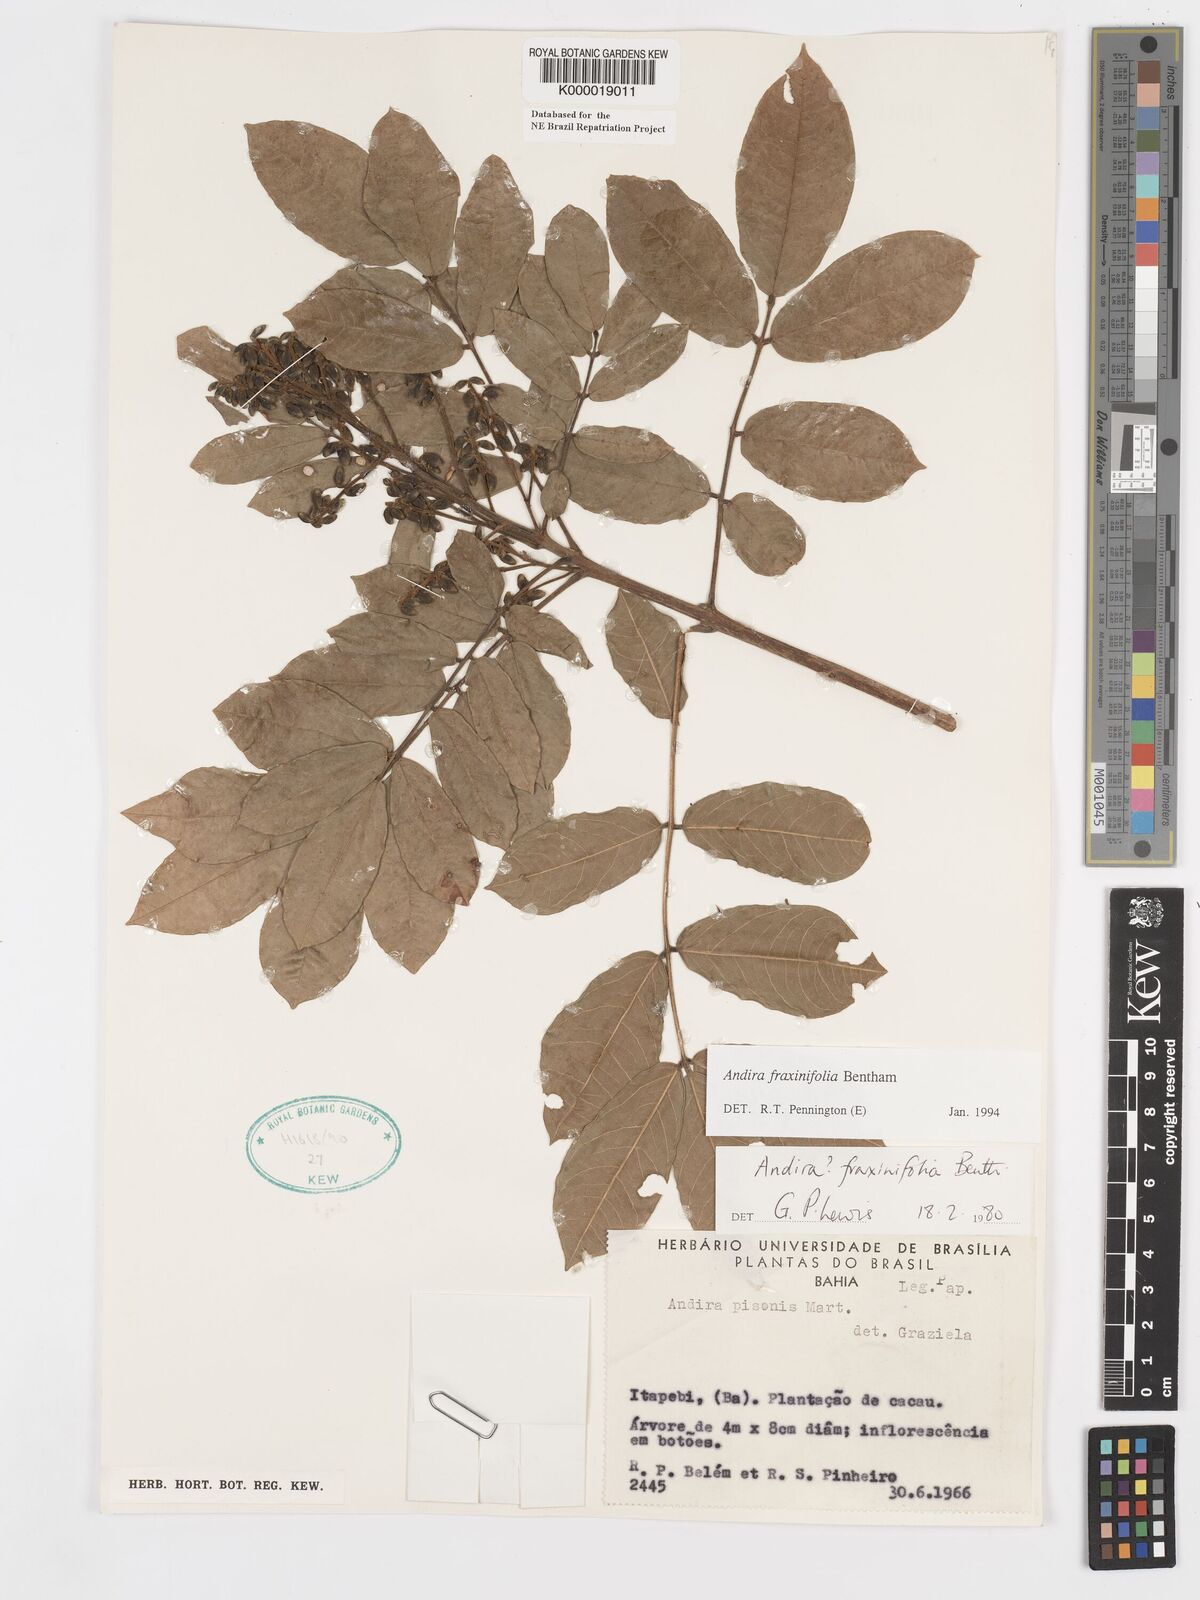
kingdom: Plantae
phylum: Tracheophyta
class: Magnoliopsida
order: Fabales
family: Fabaceae
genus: Andira
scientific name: Andira fraxinifolia
